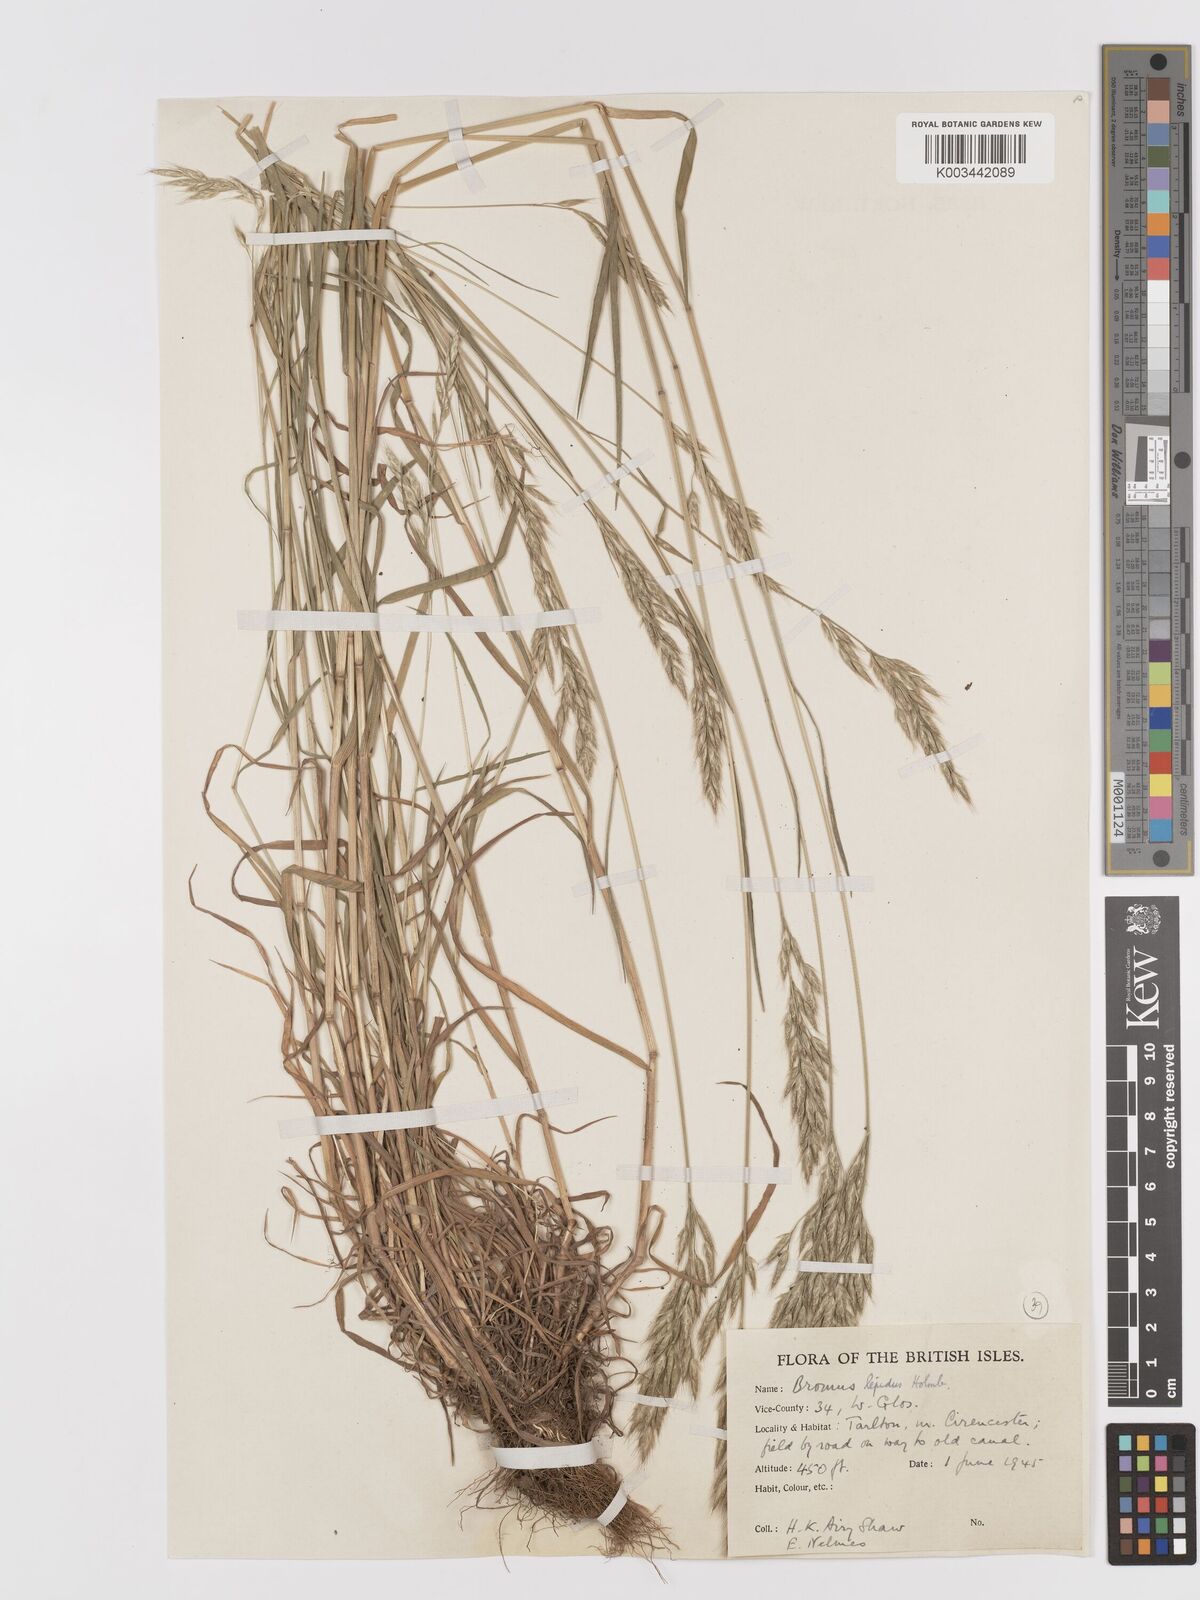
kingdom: Plantae
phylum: Tracheophyta
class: Liliopsida
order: Poales
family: Poaceae
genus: Bromus
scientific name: Bromus lepidus
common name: Slender soft-brome
